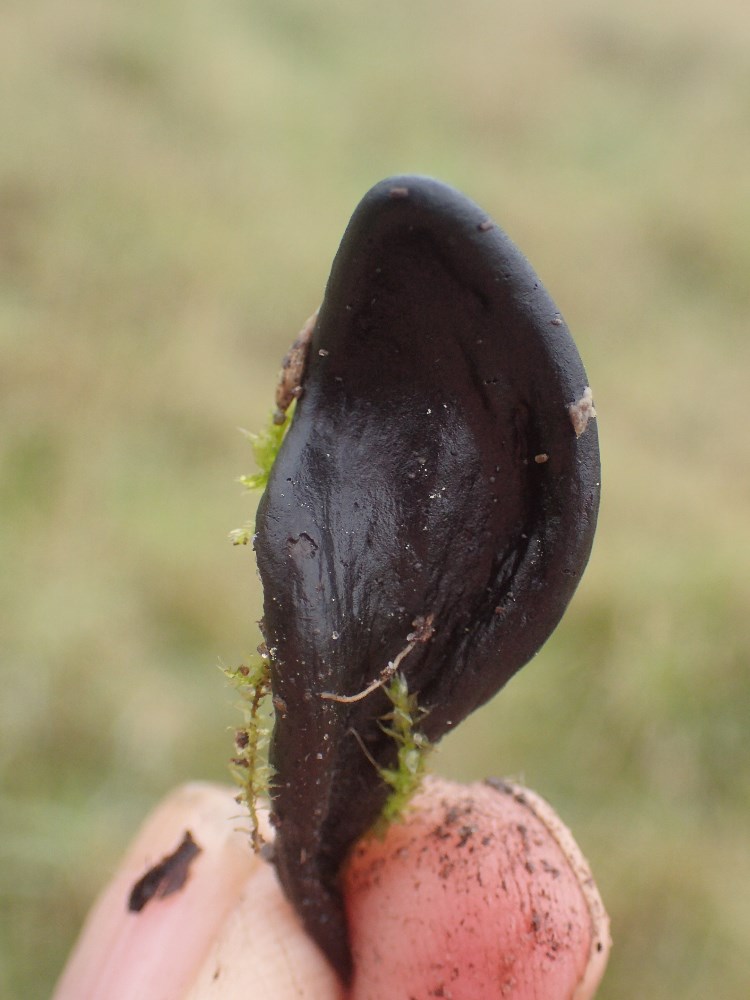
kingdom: Fungi
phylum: Ascomycota
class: Geoglossomycetes
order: Geoglossales
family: Geoglossaceae
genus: Geoglossum
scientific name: Geoglossum cookeianum
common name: bred jordtunge
